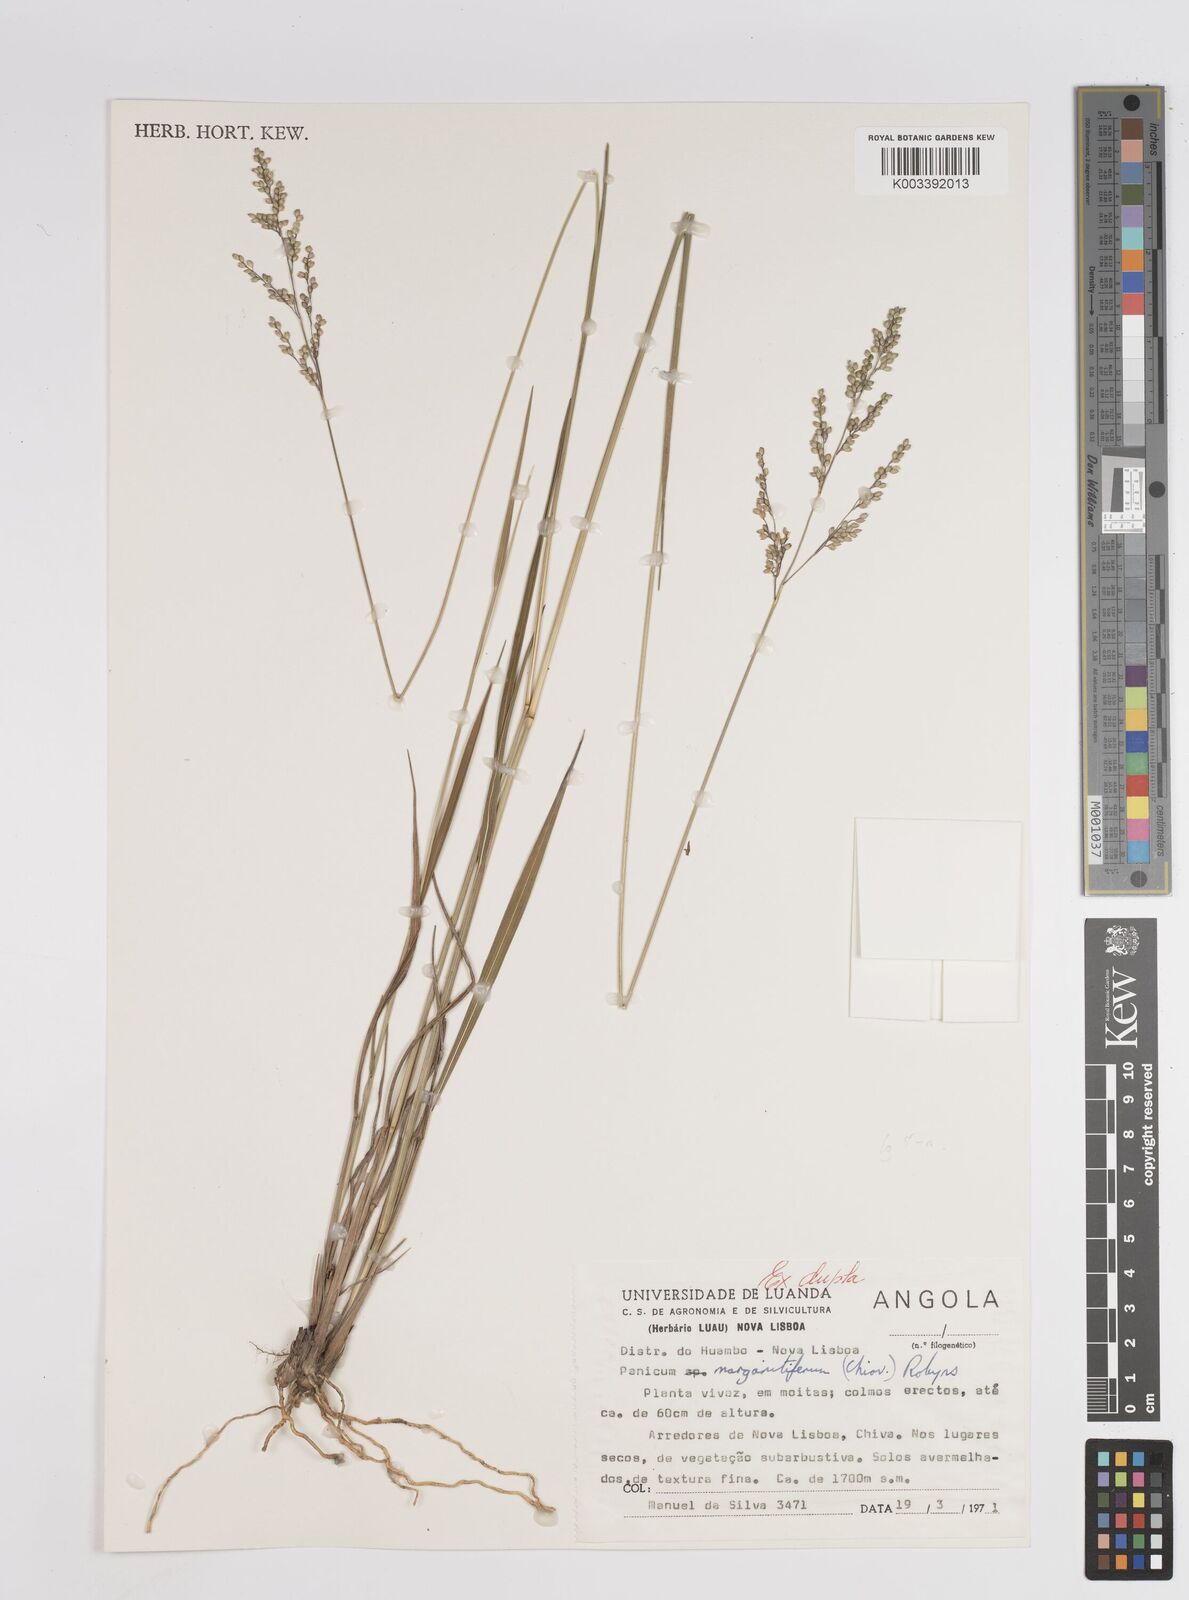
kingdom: Plantae
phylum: Tracheophyta
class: Liliopsida
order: Poales
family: Poaceae
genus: Sacciolepis
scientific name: Sacciolepis myuros
